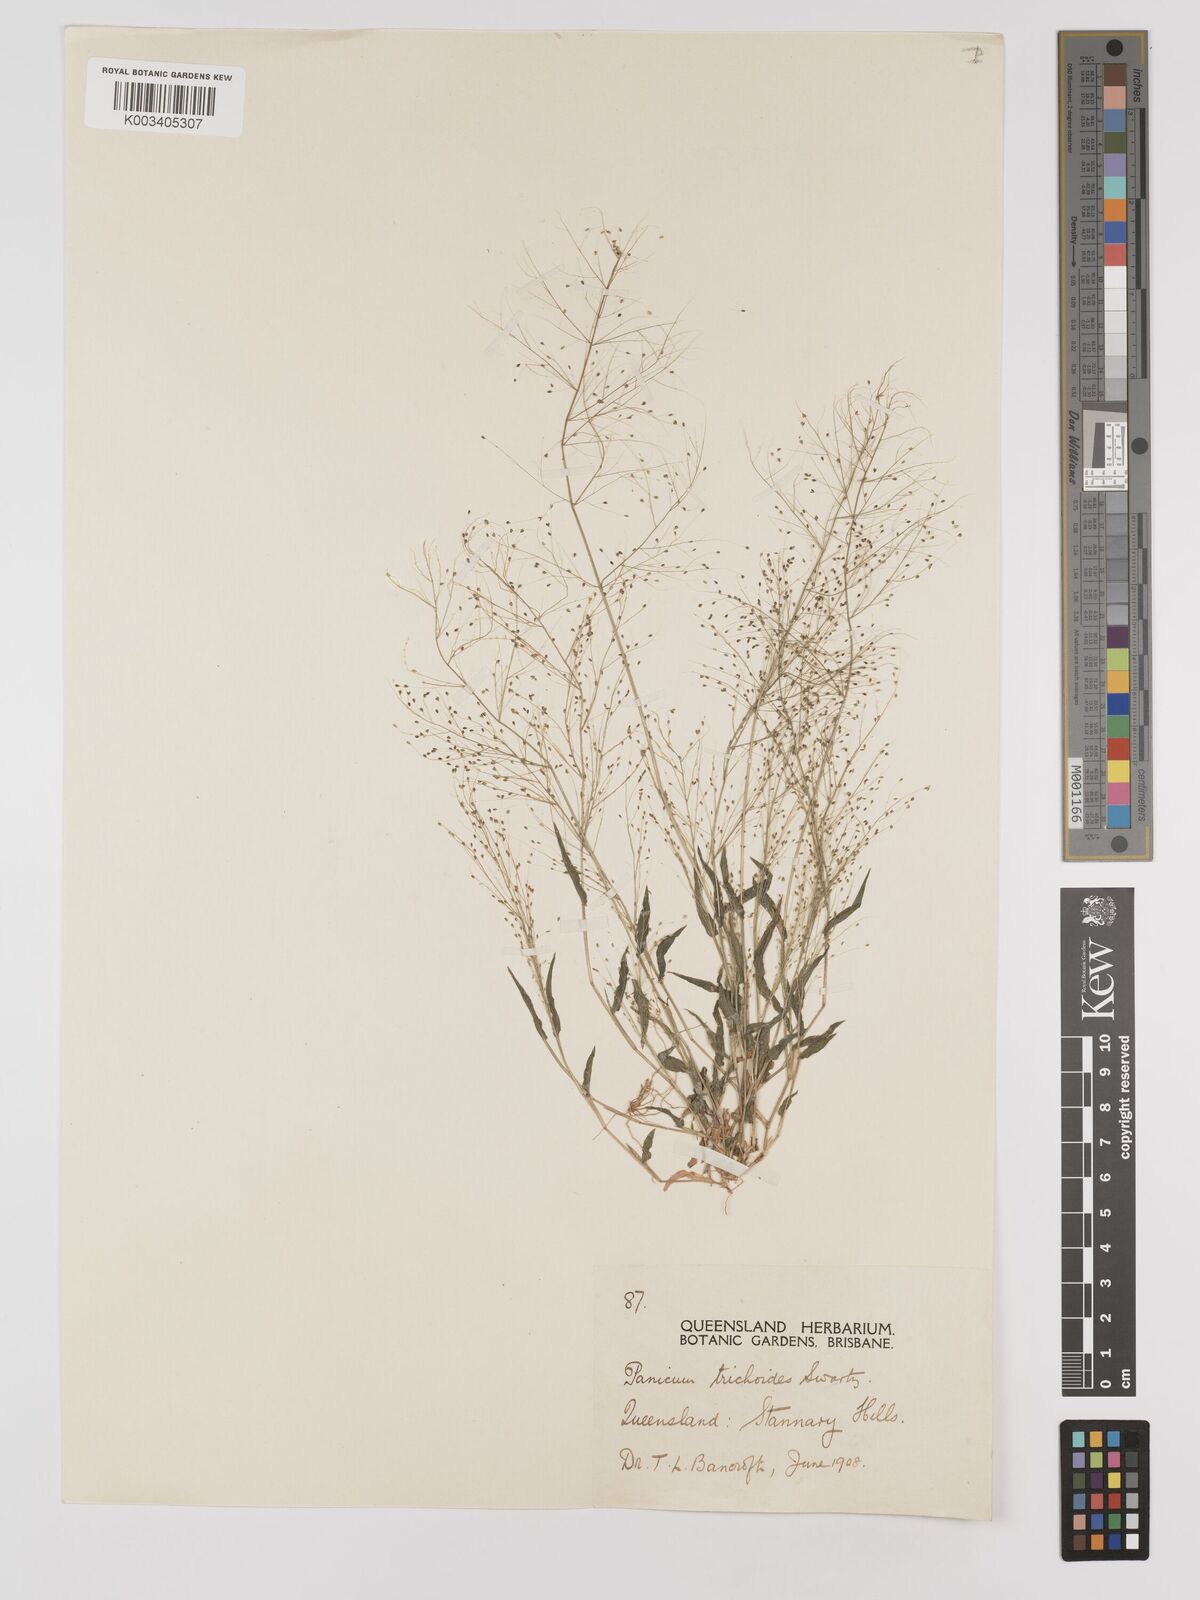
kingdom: Plantae
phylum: Tracheophyta
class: Liliopsida
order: Poales
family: Poaceae
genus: Panicum
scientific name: Panicum trichoides
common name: Tickle grass
